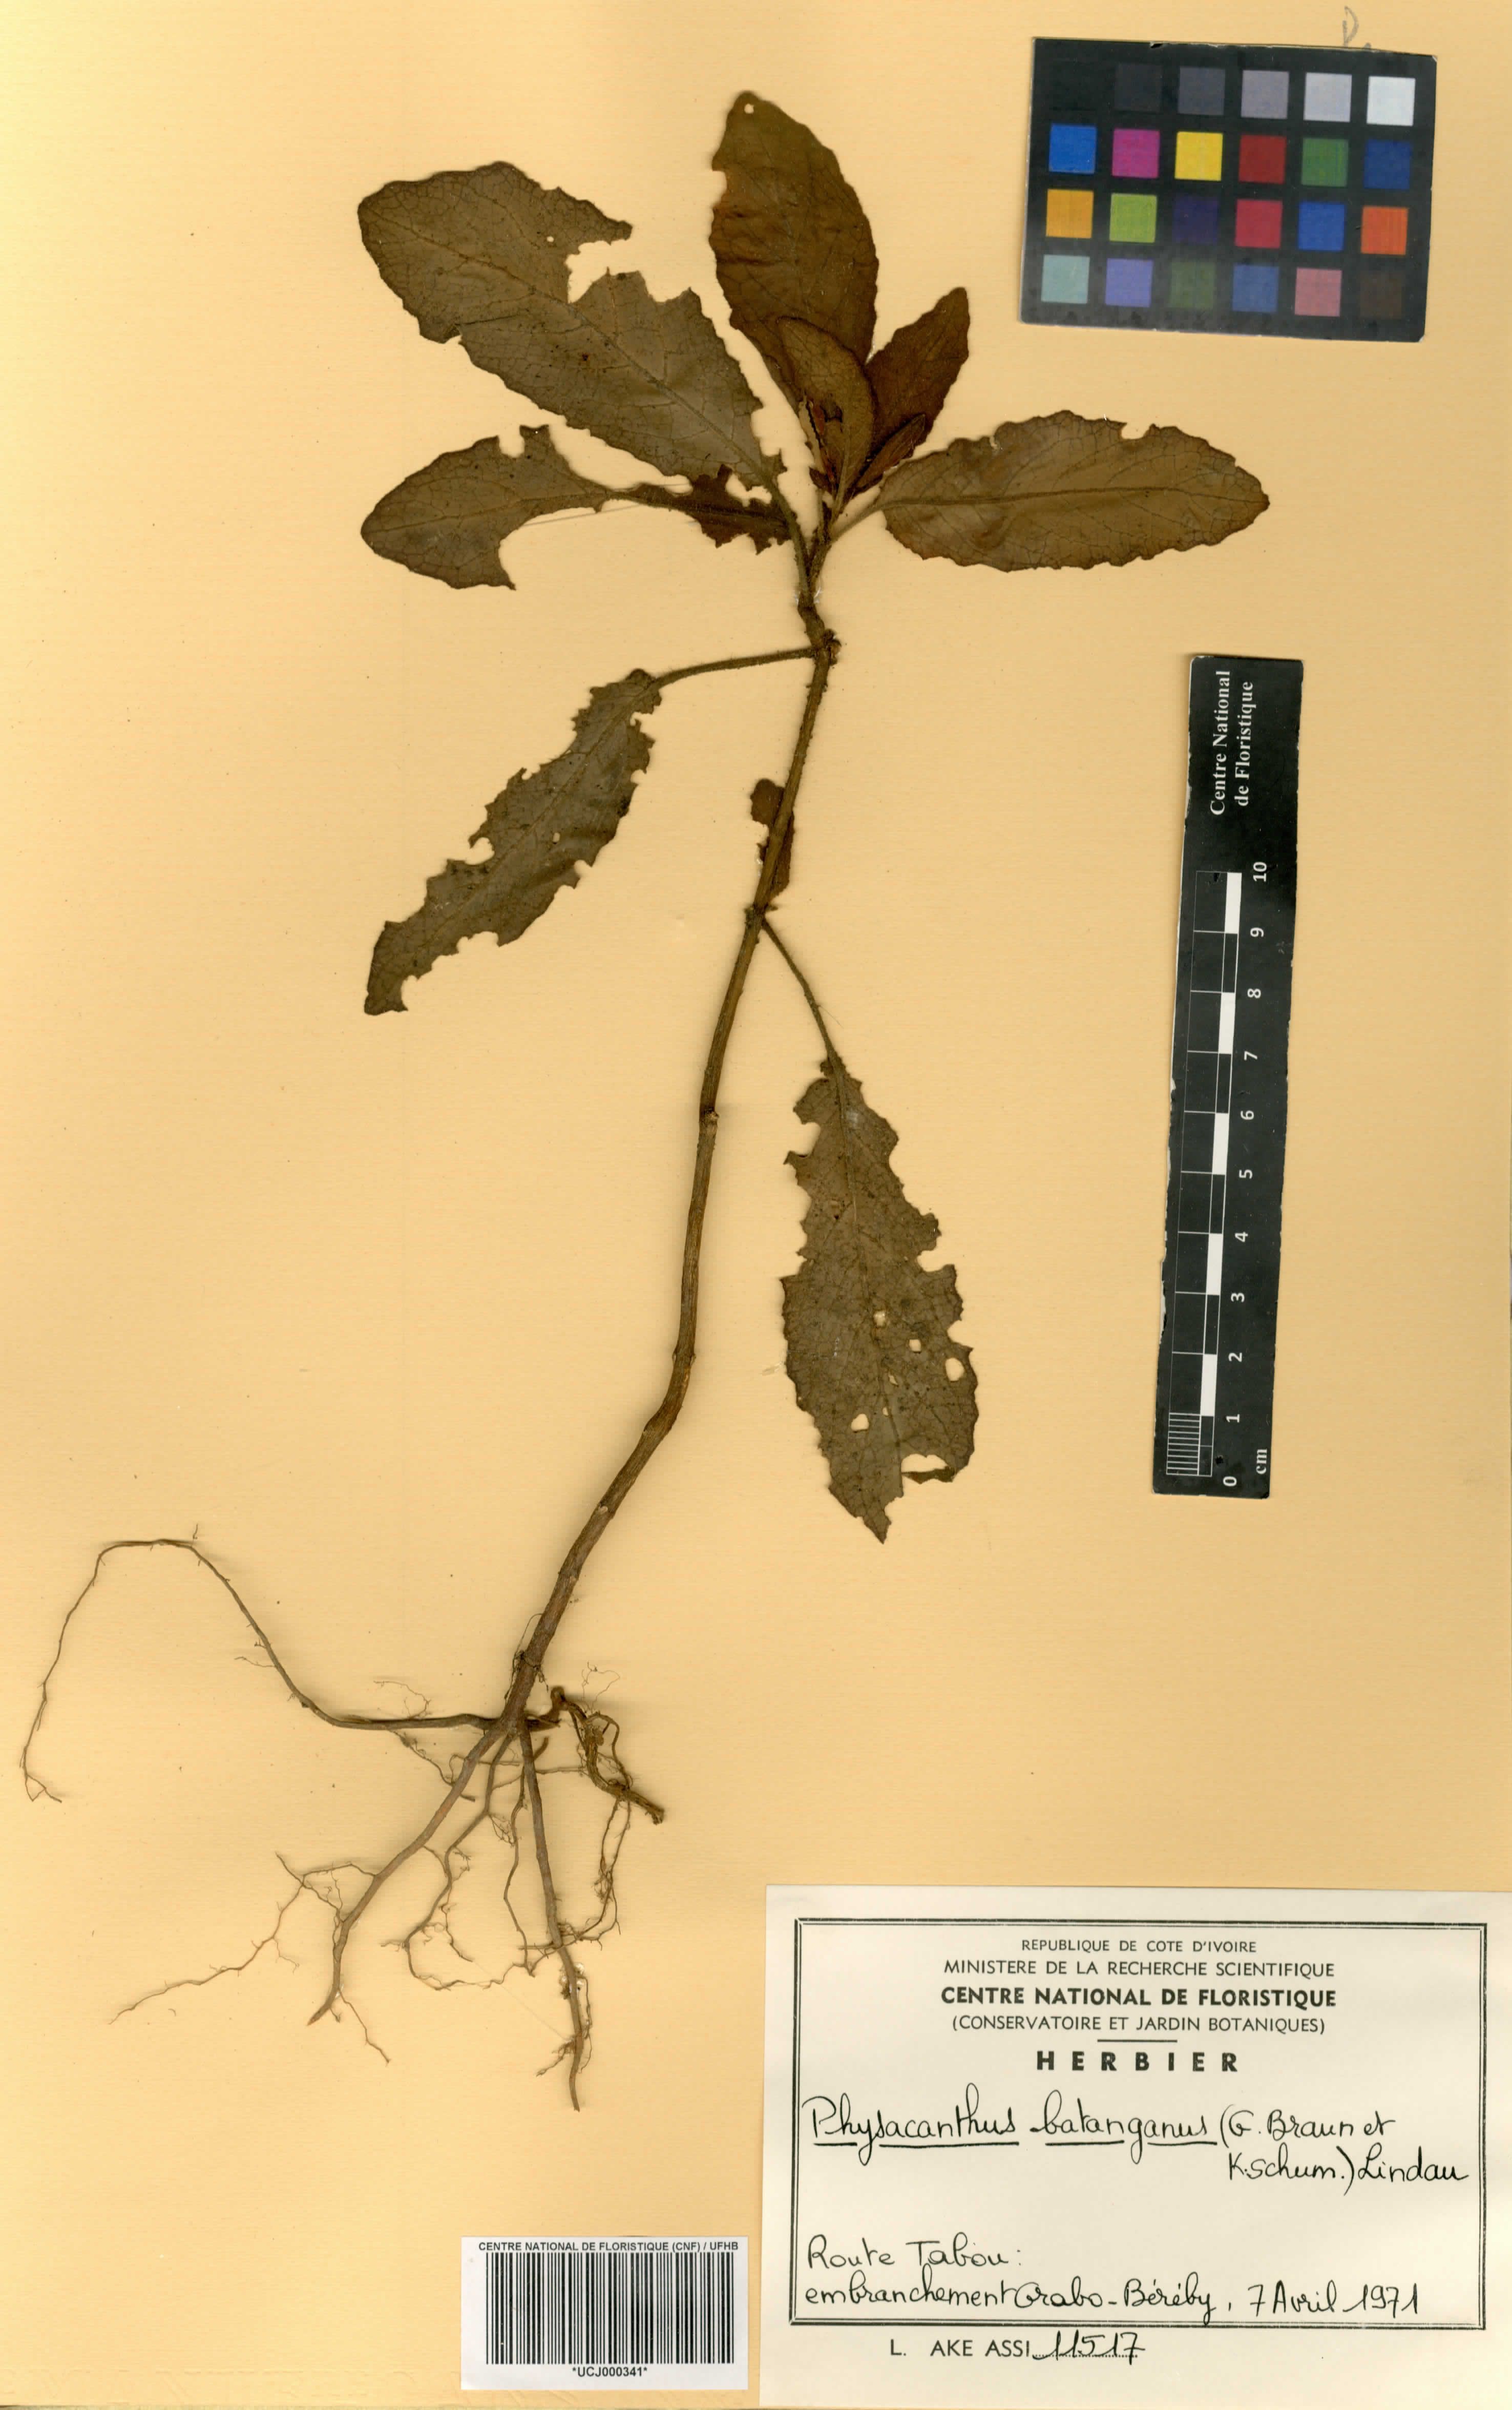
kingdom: Plantae
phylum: Tracheophyta
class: Magnoliopsida
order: Lamiales
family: Acanthaceae
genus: Physacanthus
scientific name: Physacanthus batanganus
